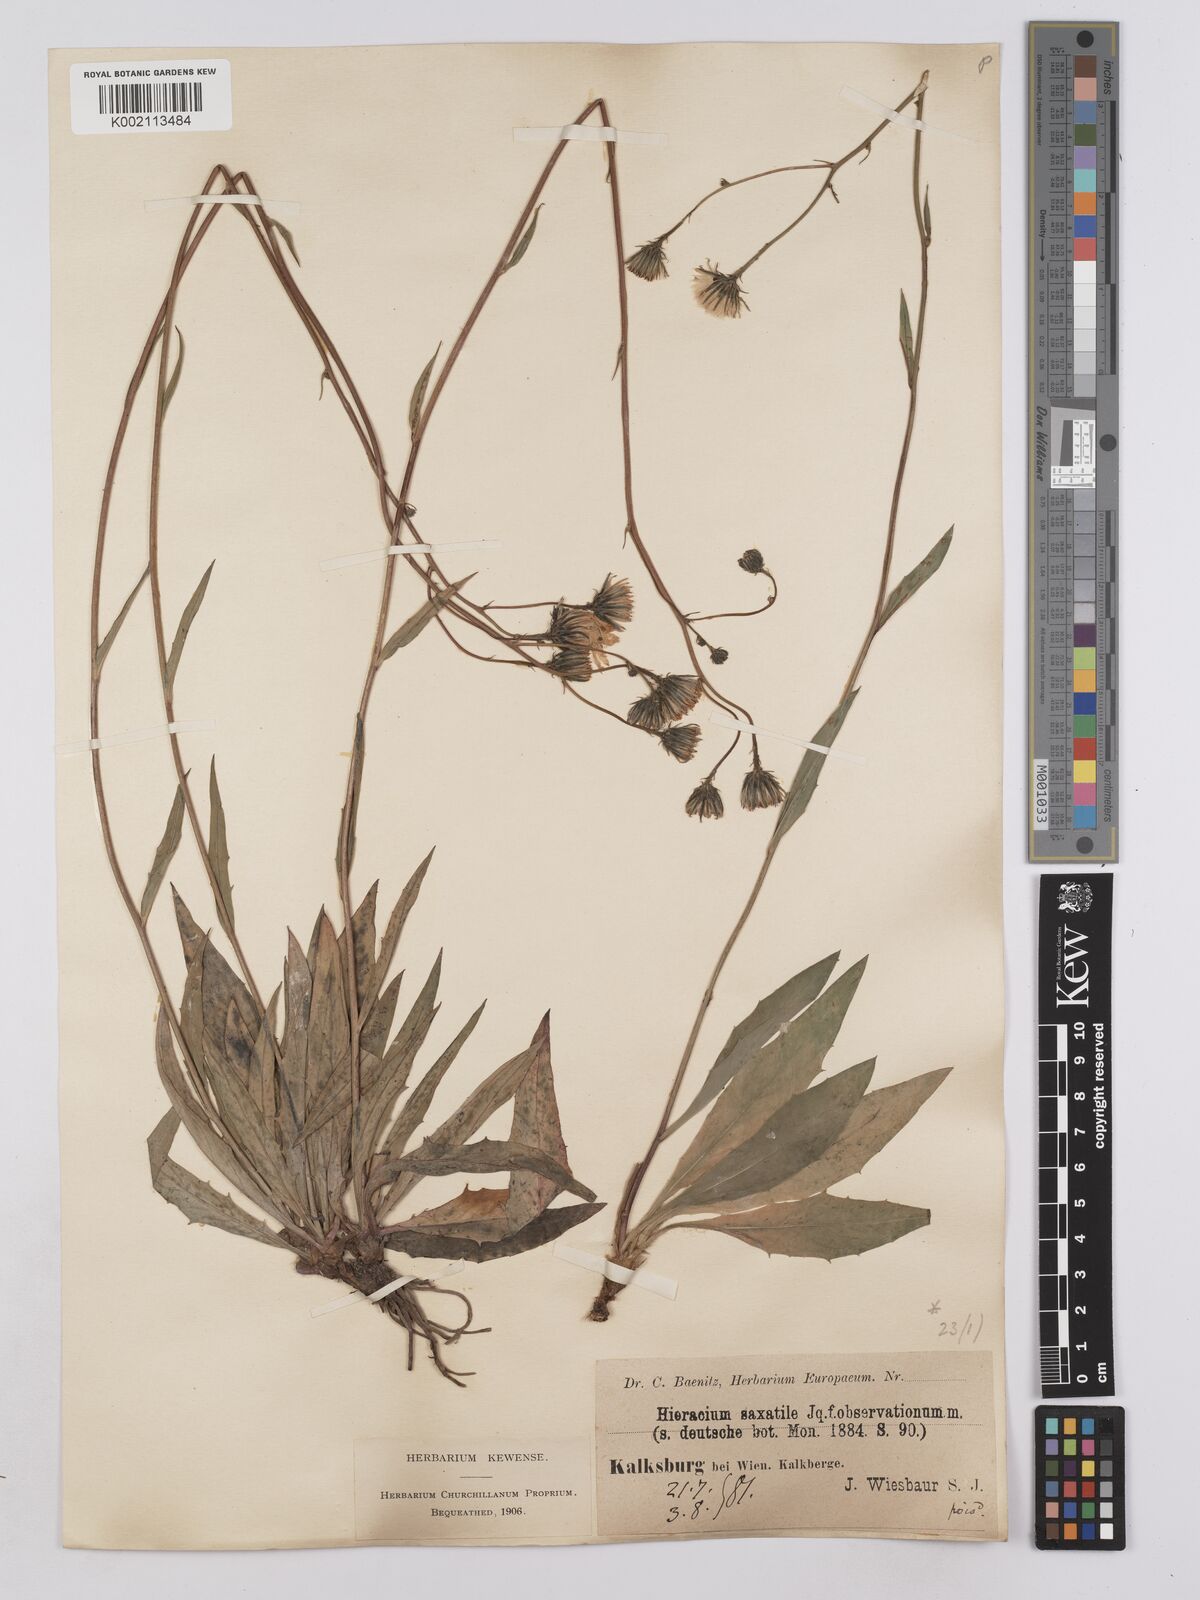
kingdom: Plantae
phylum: Tracheophyta
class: Magnoliopsida
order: Asterales
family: Asteraceae
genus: Hieracium
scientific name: Hieracium saxatile
